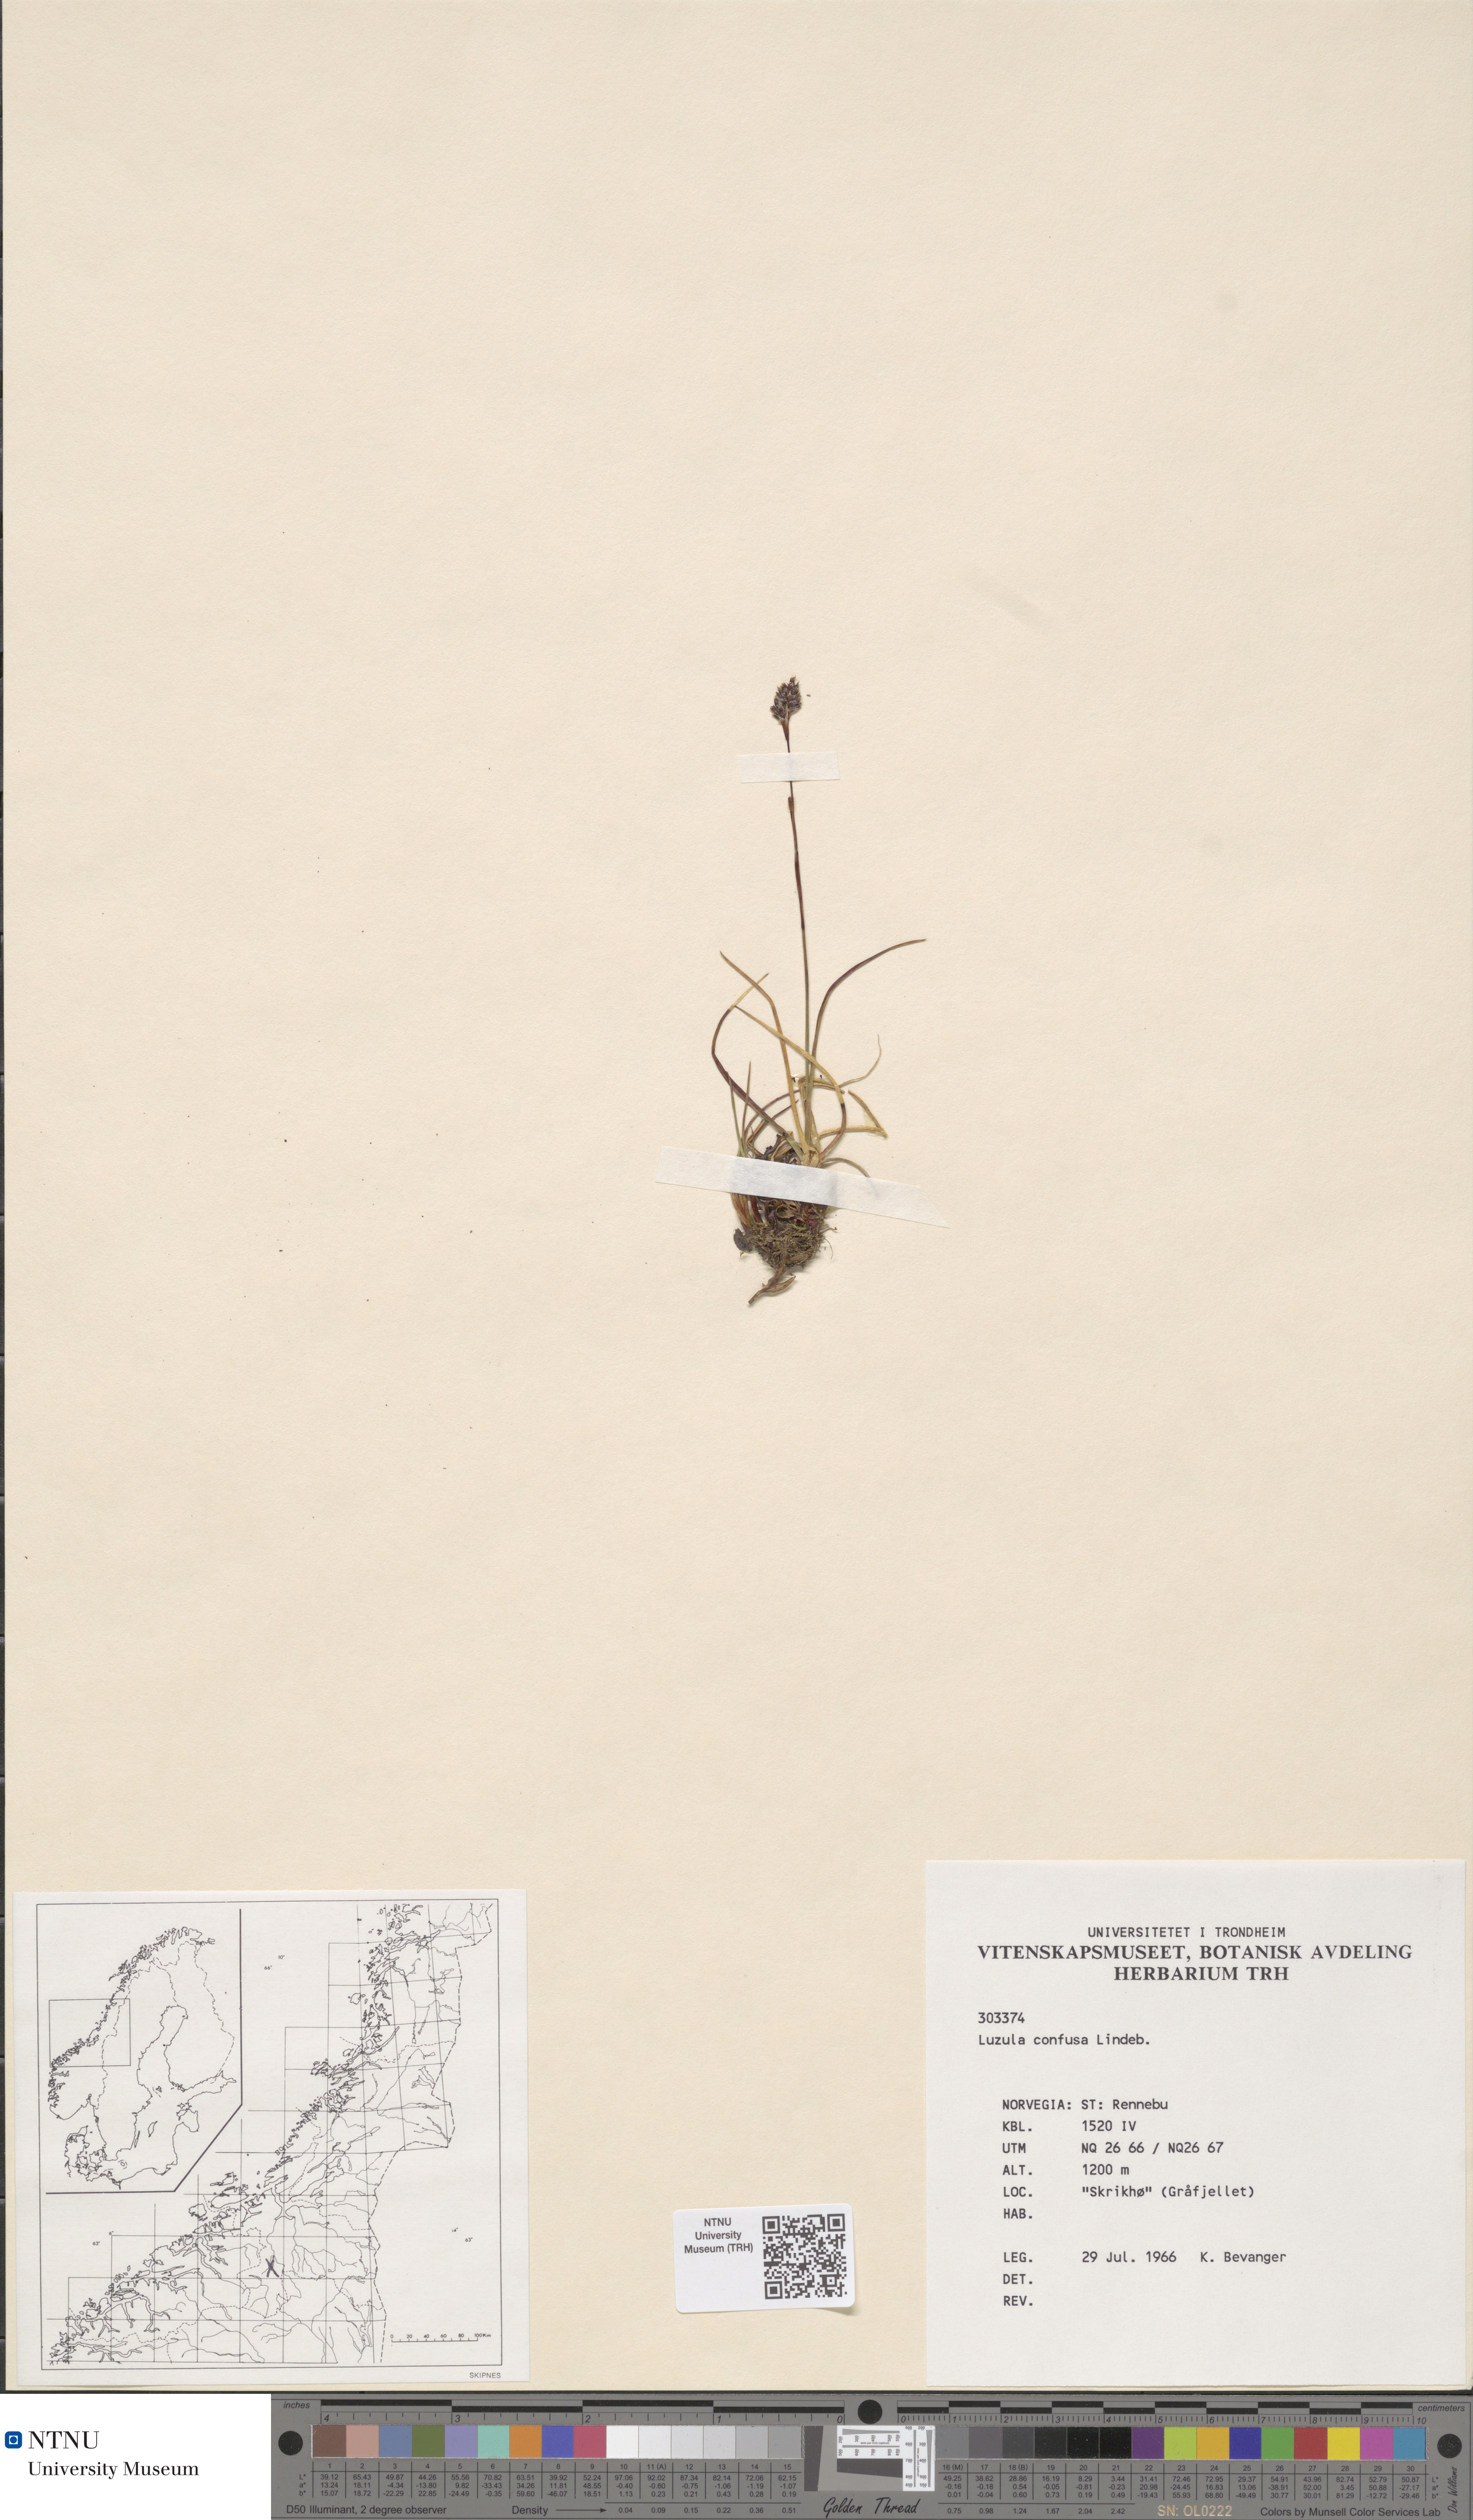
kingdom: Plantae
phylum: Tracheophyta
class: Liliopsida
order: Poales
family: Juncaceae
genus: Luzula
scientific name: Luzula confusa
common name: Northern wood rush
